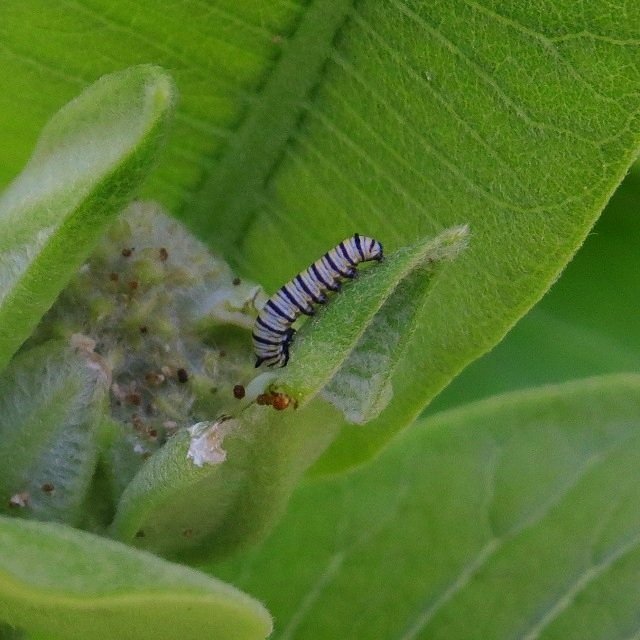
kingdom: Animalia
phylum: Arthropoda
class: Insecta
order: Lepidoptera
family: Nymphalidae
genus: Danaus
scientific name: Danaus plexippus
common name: Monarch
